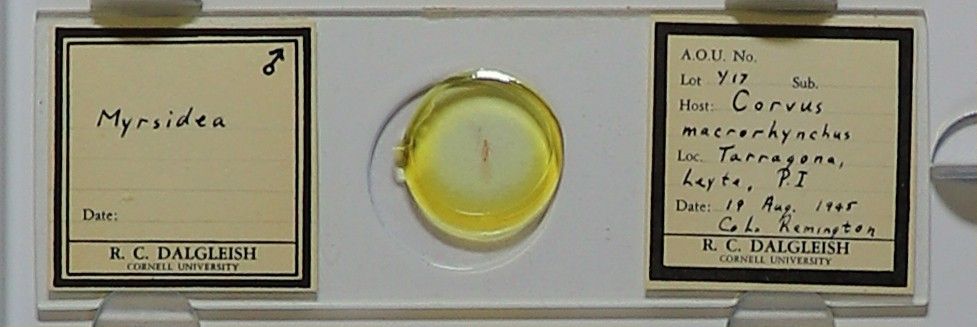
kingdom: Animalia
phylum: Arthropoda
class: Insecta
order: Psocodea
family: Menoponidae
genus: Myrsidea
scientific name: Myrsidea
